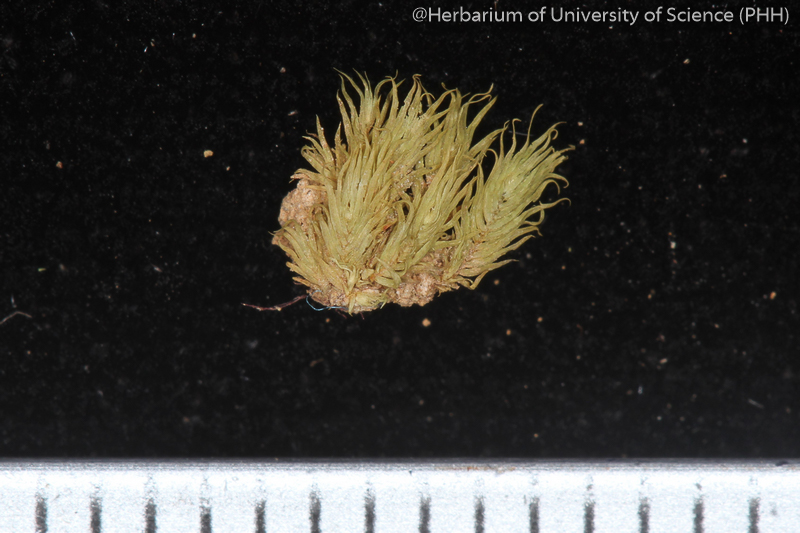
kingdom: Plantae
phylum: Bryophyta
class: Bryopsida
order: Dicranales
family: Fissidentaceae
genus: Fissidens
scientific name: Fissidens wichurae
